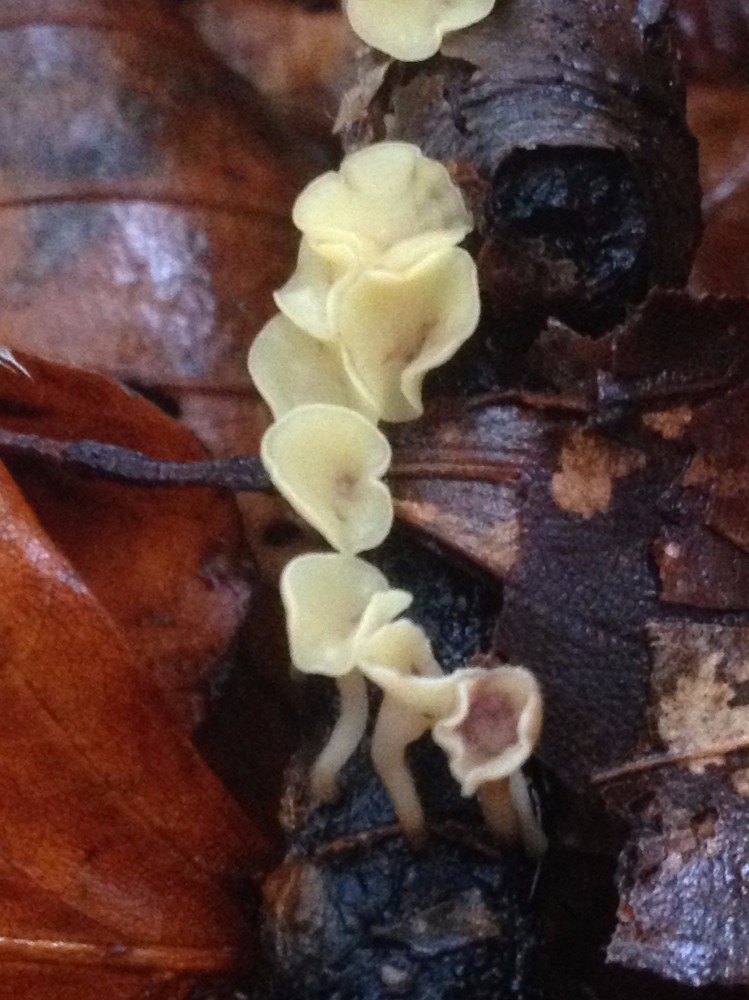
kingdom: Fungi
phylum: Ascomycota
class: Leotiomycetes
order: Helotiales
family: Helotiaceae
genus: Hymenoscyphus
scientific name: Hymenoscyphus serotinus
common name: krumsporet stilkskive
